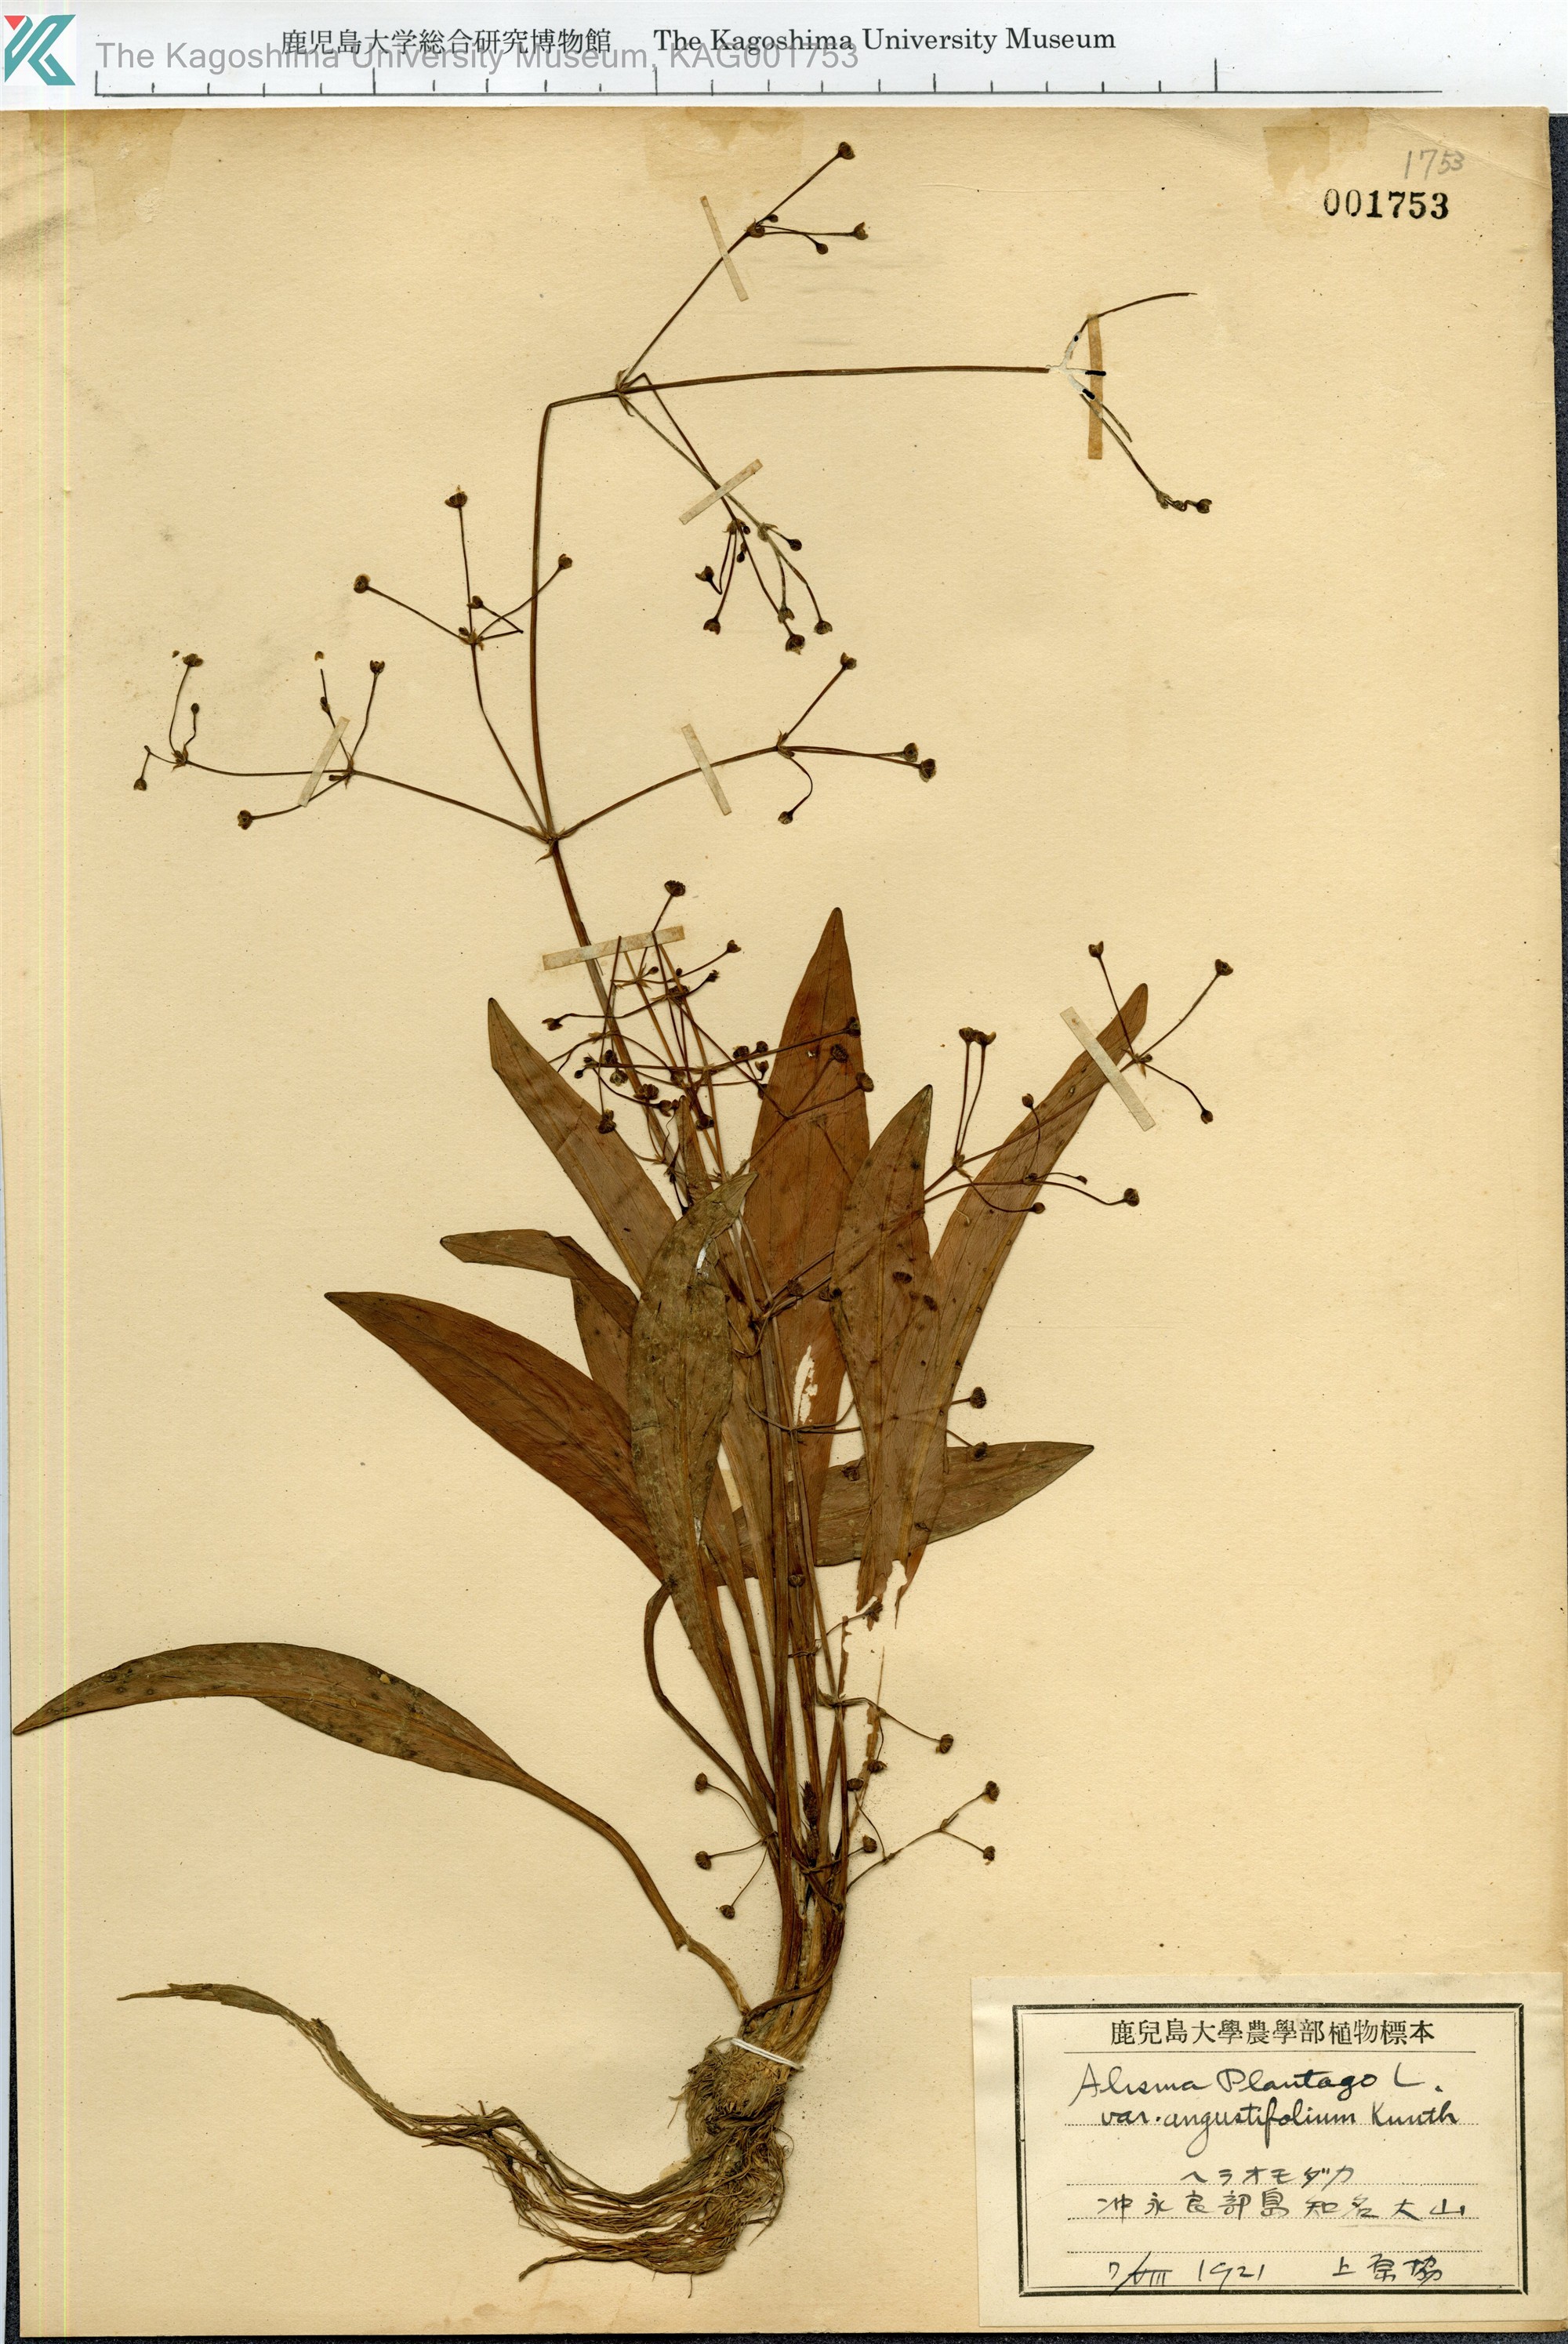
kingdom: Plantae
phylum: Tracheophyta
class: Liliopsida
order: Alismatales
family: Alismataceae
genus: Alisma
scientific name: Alisma canaliculatum
